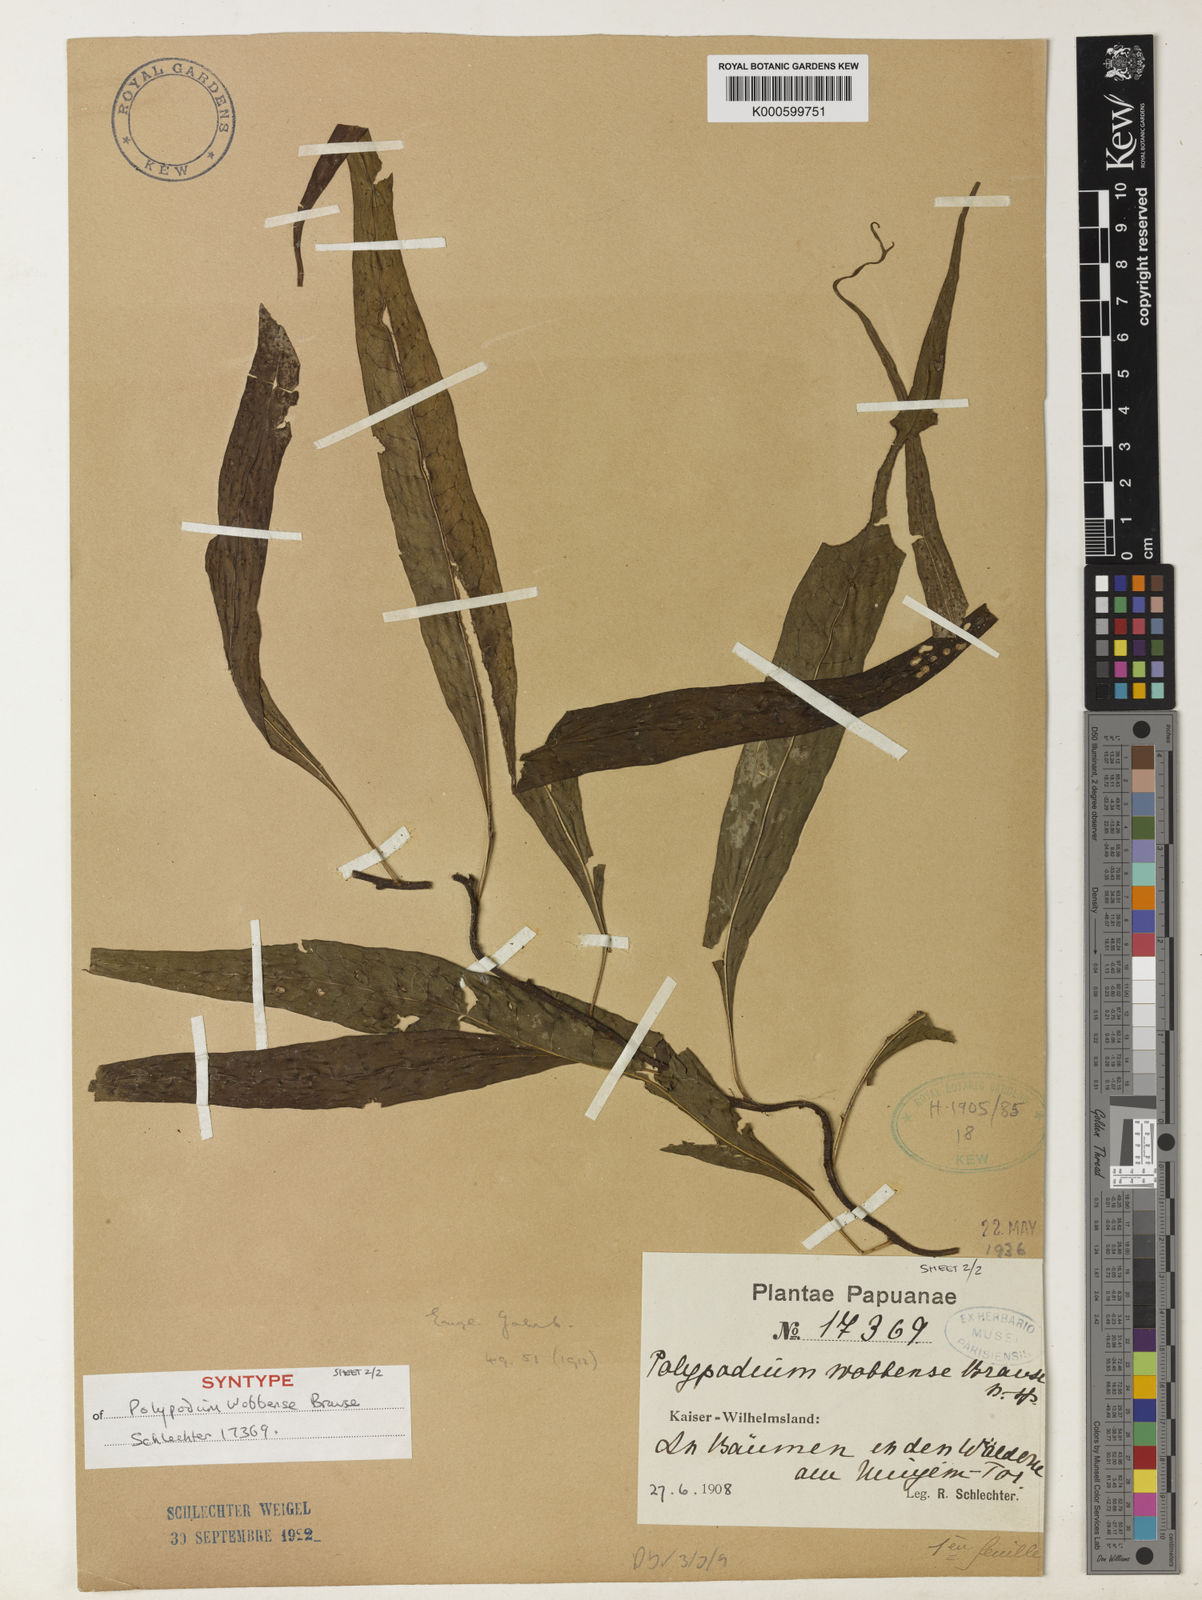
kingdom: Plantae
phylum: Tracheophyta
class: Polypodiopsida
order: Polypodiales
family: Polypodiaceae
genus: Microsorum
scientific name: Microsorum rampans
